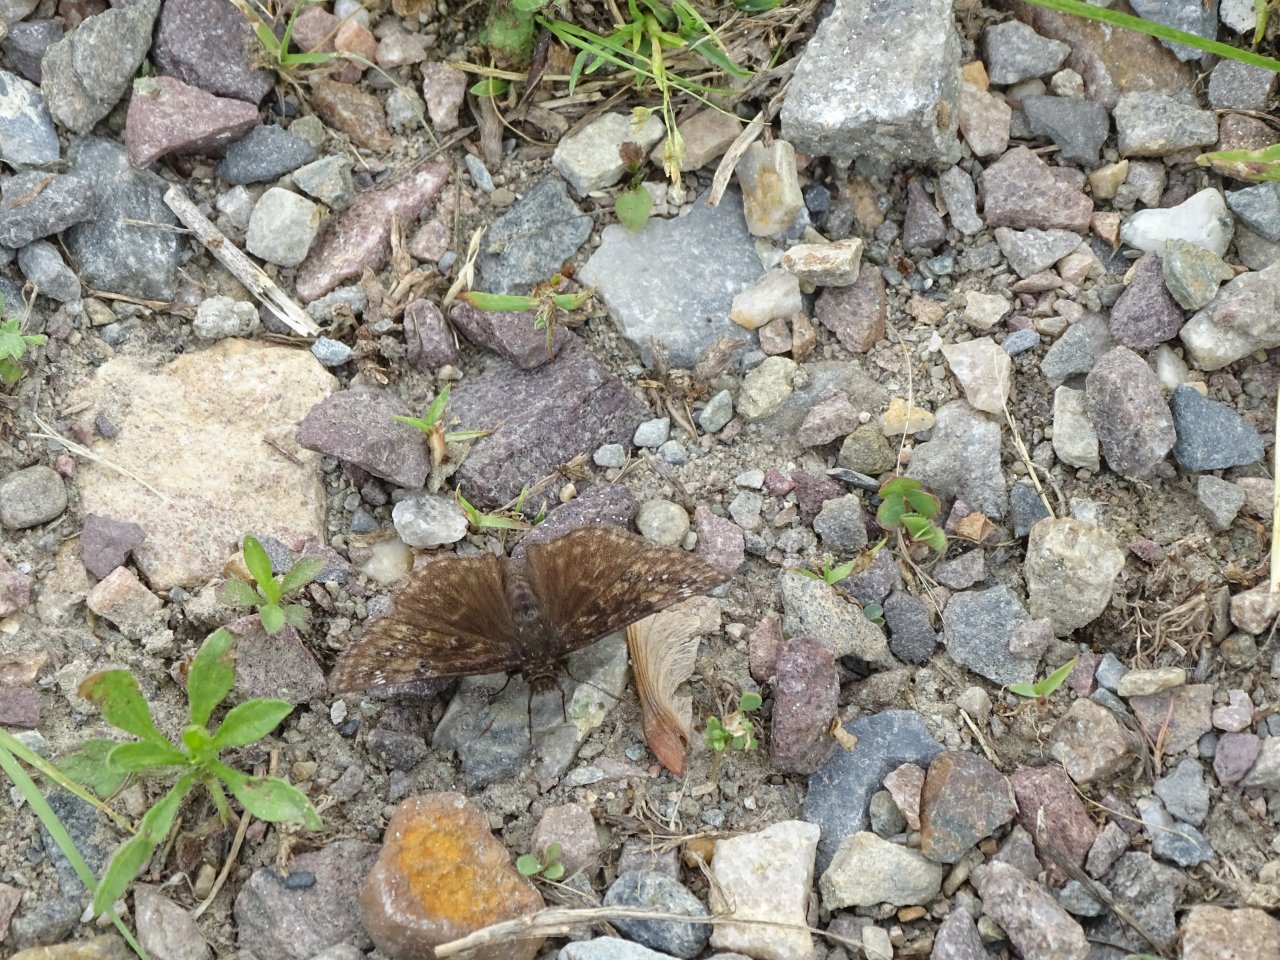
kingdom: Animalia
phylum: Arthropoda
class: Insecta
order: Lepidoptera
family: Hesperiidae
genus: Gesta
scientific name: Gesta
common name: Juvenal's Duskywing
